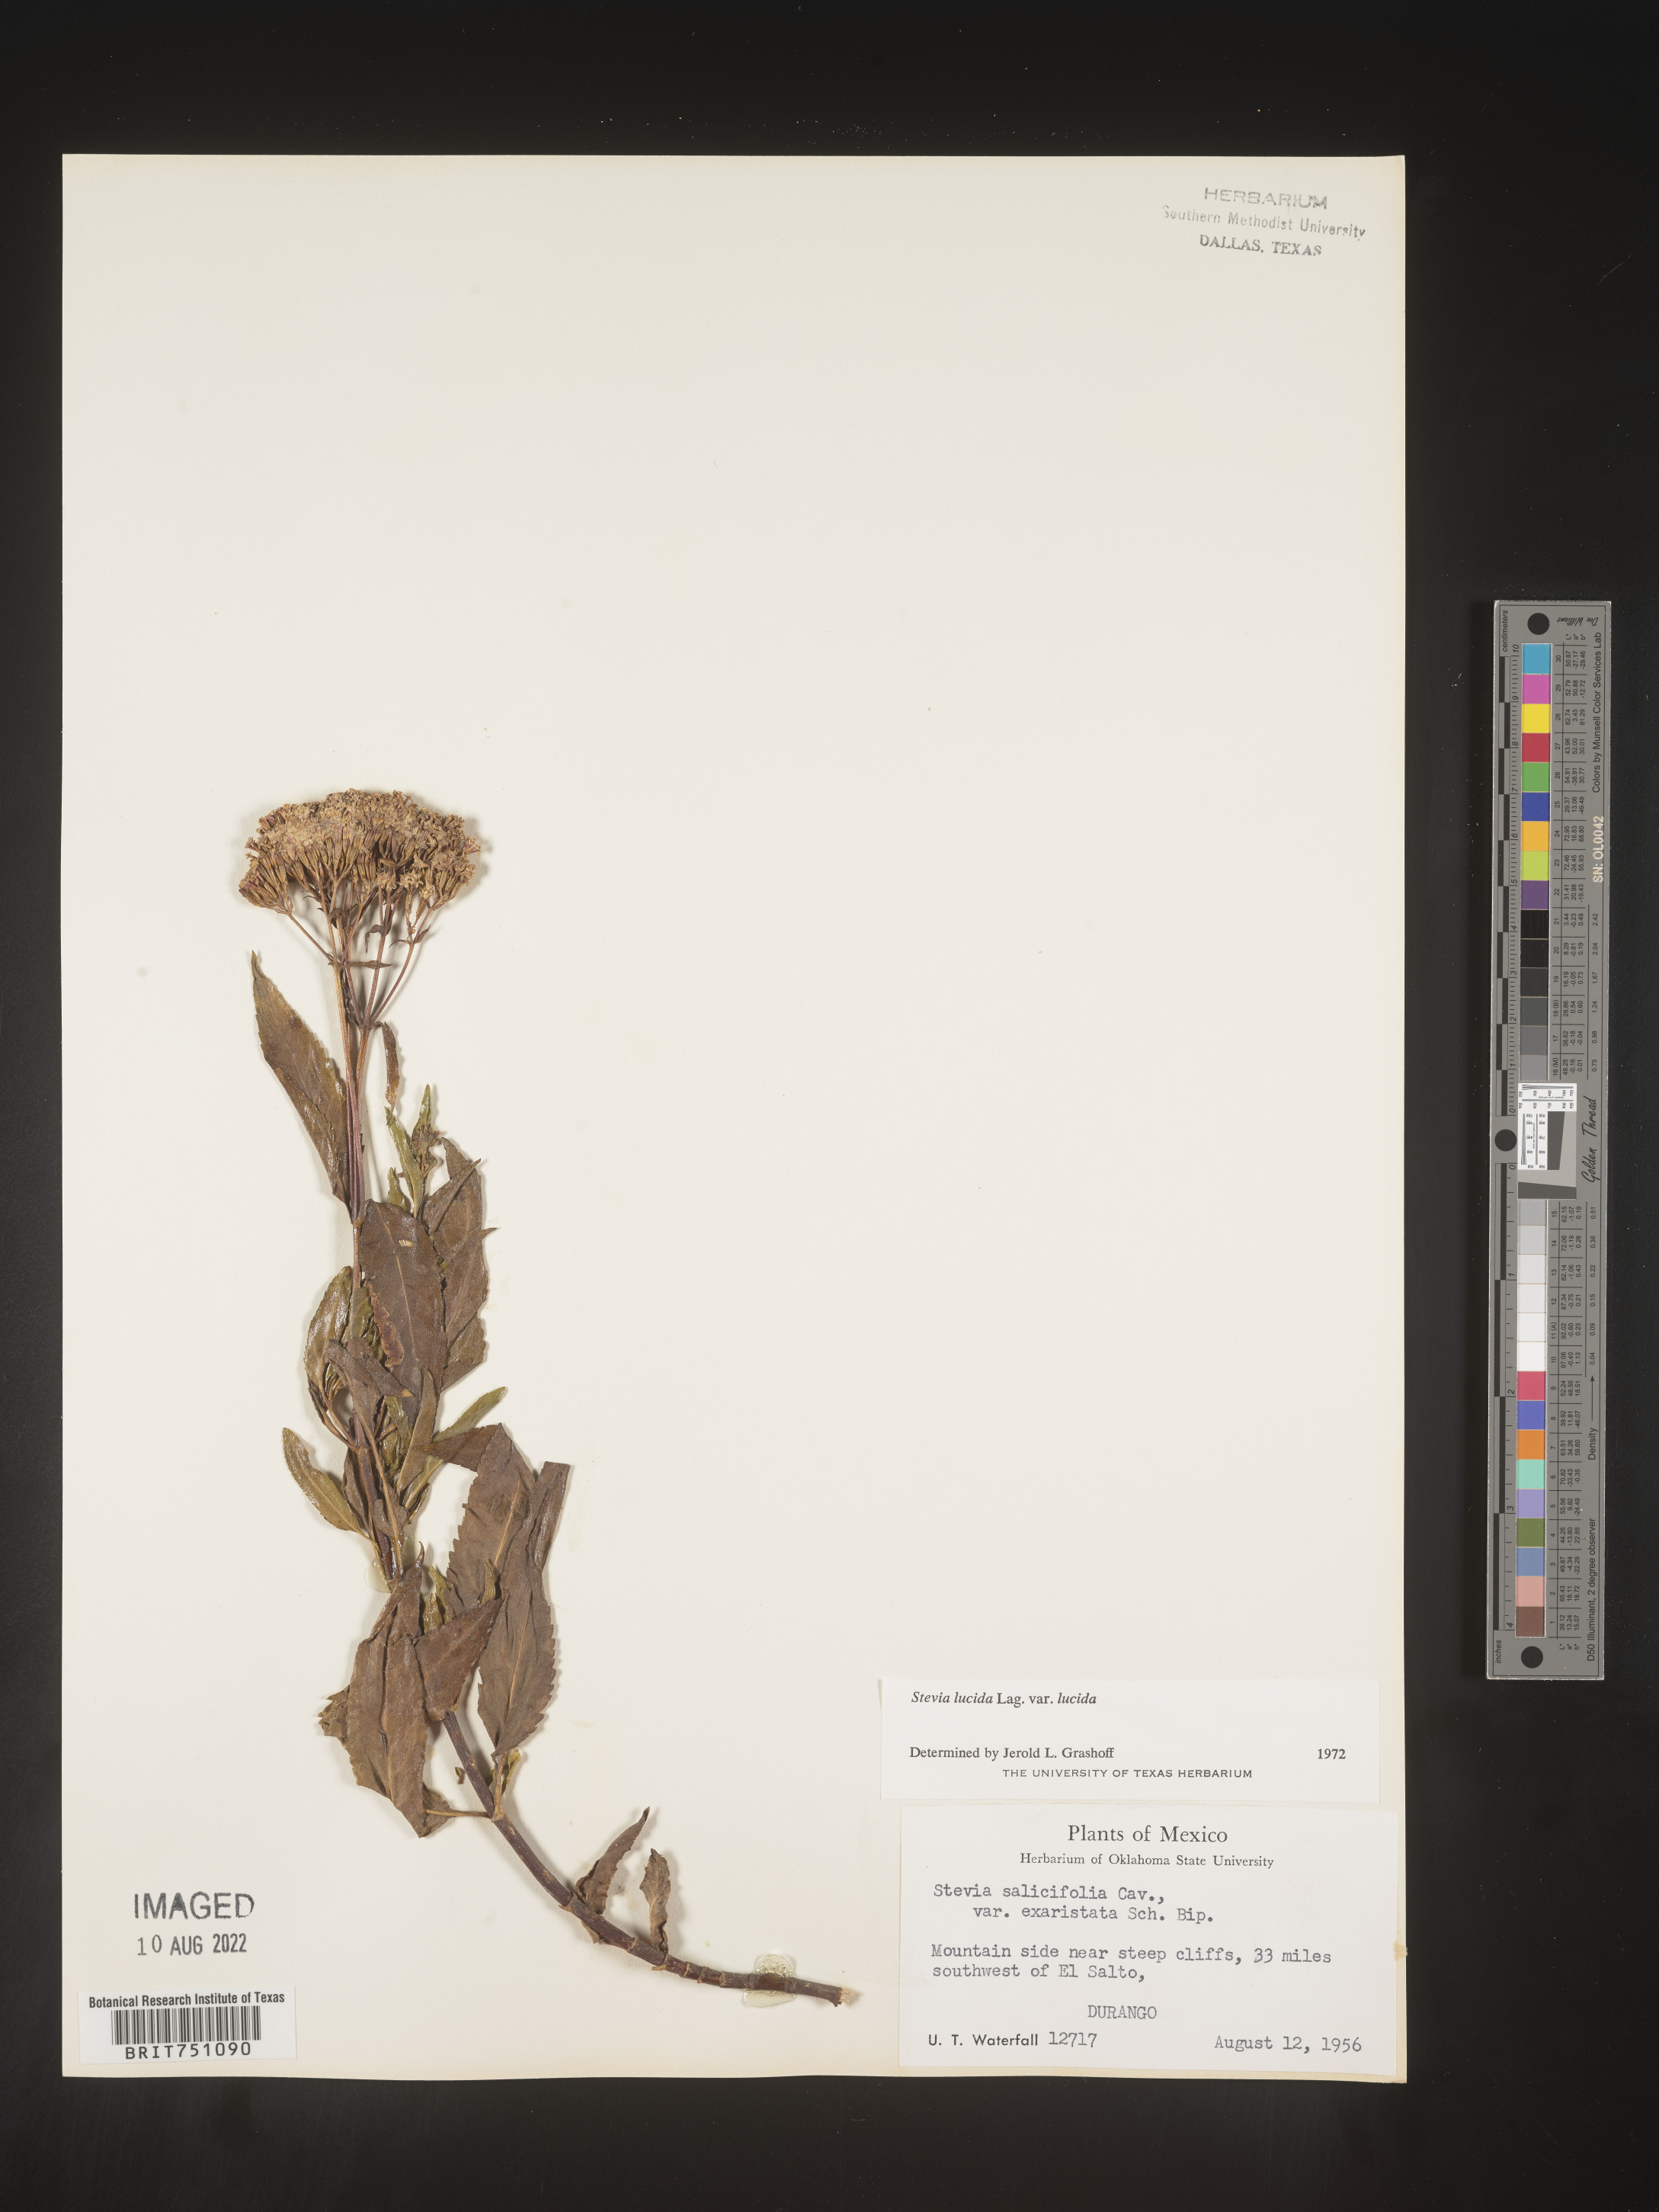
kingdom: Plantae
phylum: Tracheophyta
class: Magnoliopsida
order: Asterales
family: Asteraceae
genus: Stevia
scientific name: Stevia
